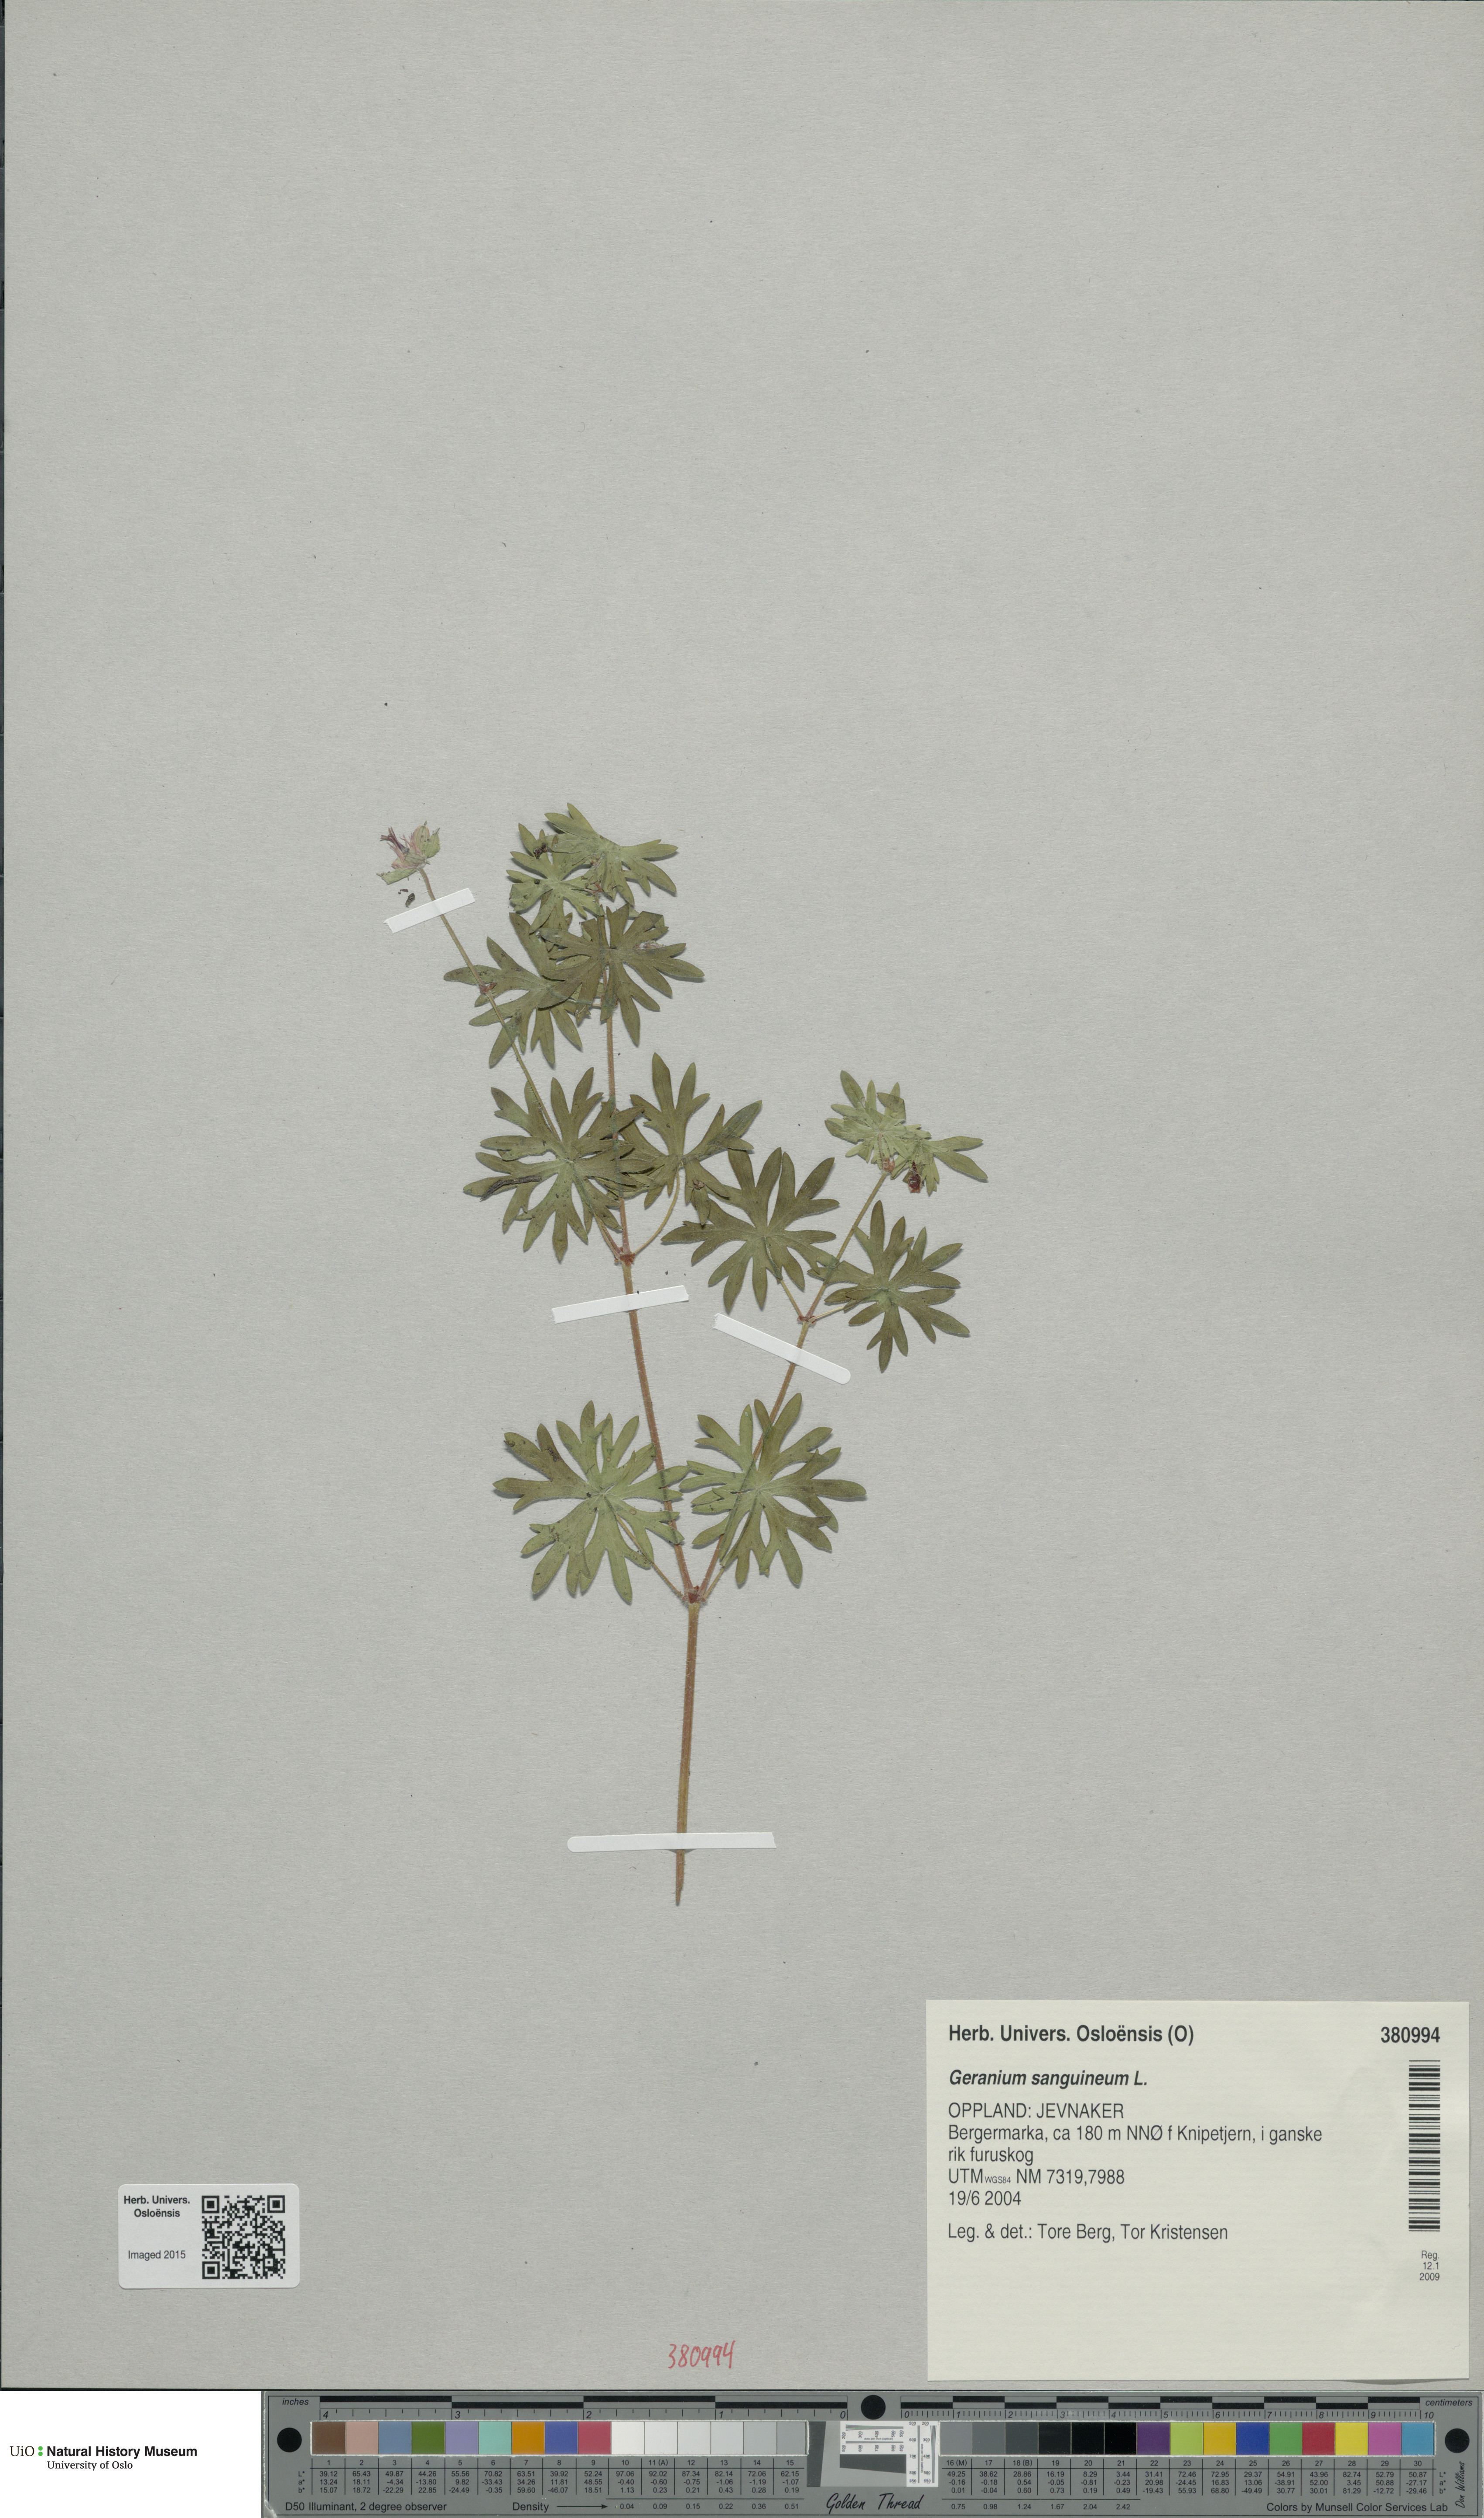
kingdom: Plantae
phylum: Tracheophyta
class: Magnoliopsida
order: Geraniales
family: Geraniaceae
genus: Geranium
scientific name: Geranium sanguineum
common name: Bloody crane's-bill
